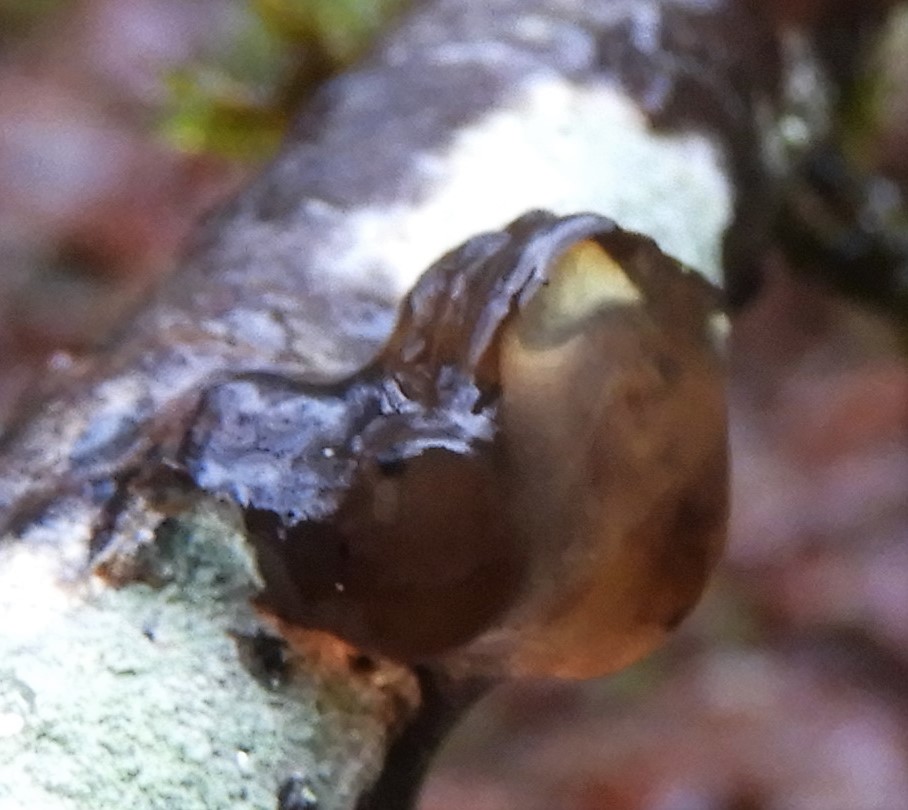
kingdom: Fungi
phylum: Basidiomycota
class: Agaricomycetes
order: Auriculariales
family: Auriculariaceae
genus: Exidia
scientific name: Exidia recisa
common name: pile-bævretop
